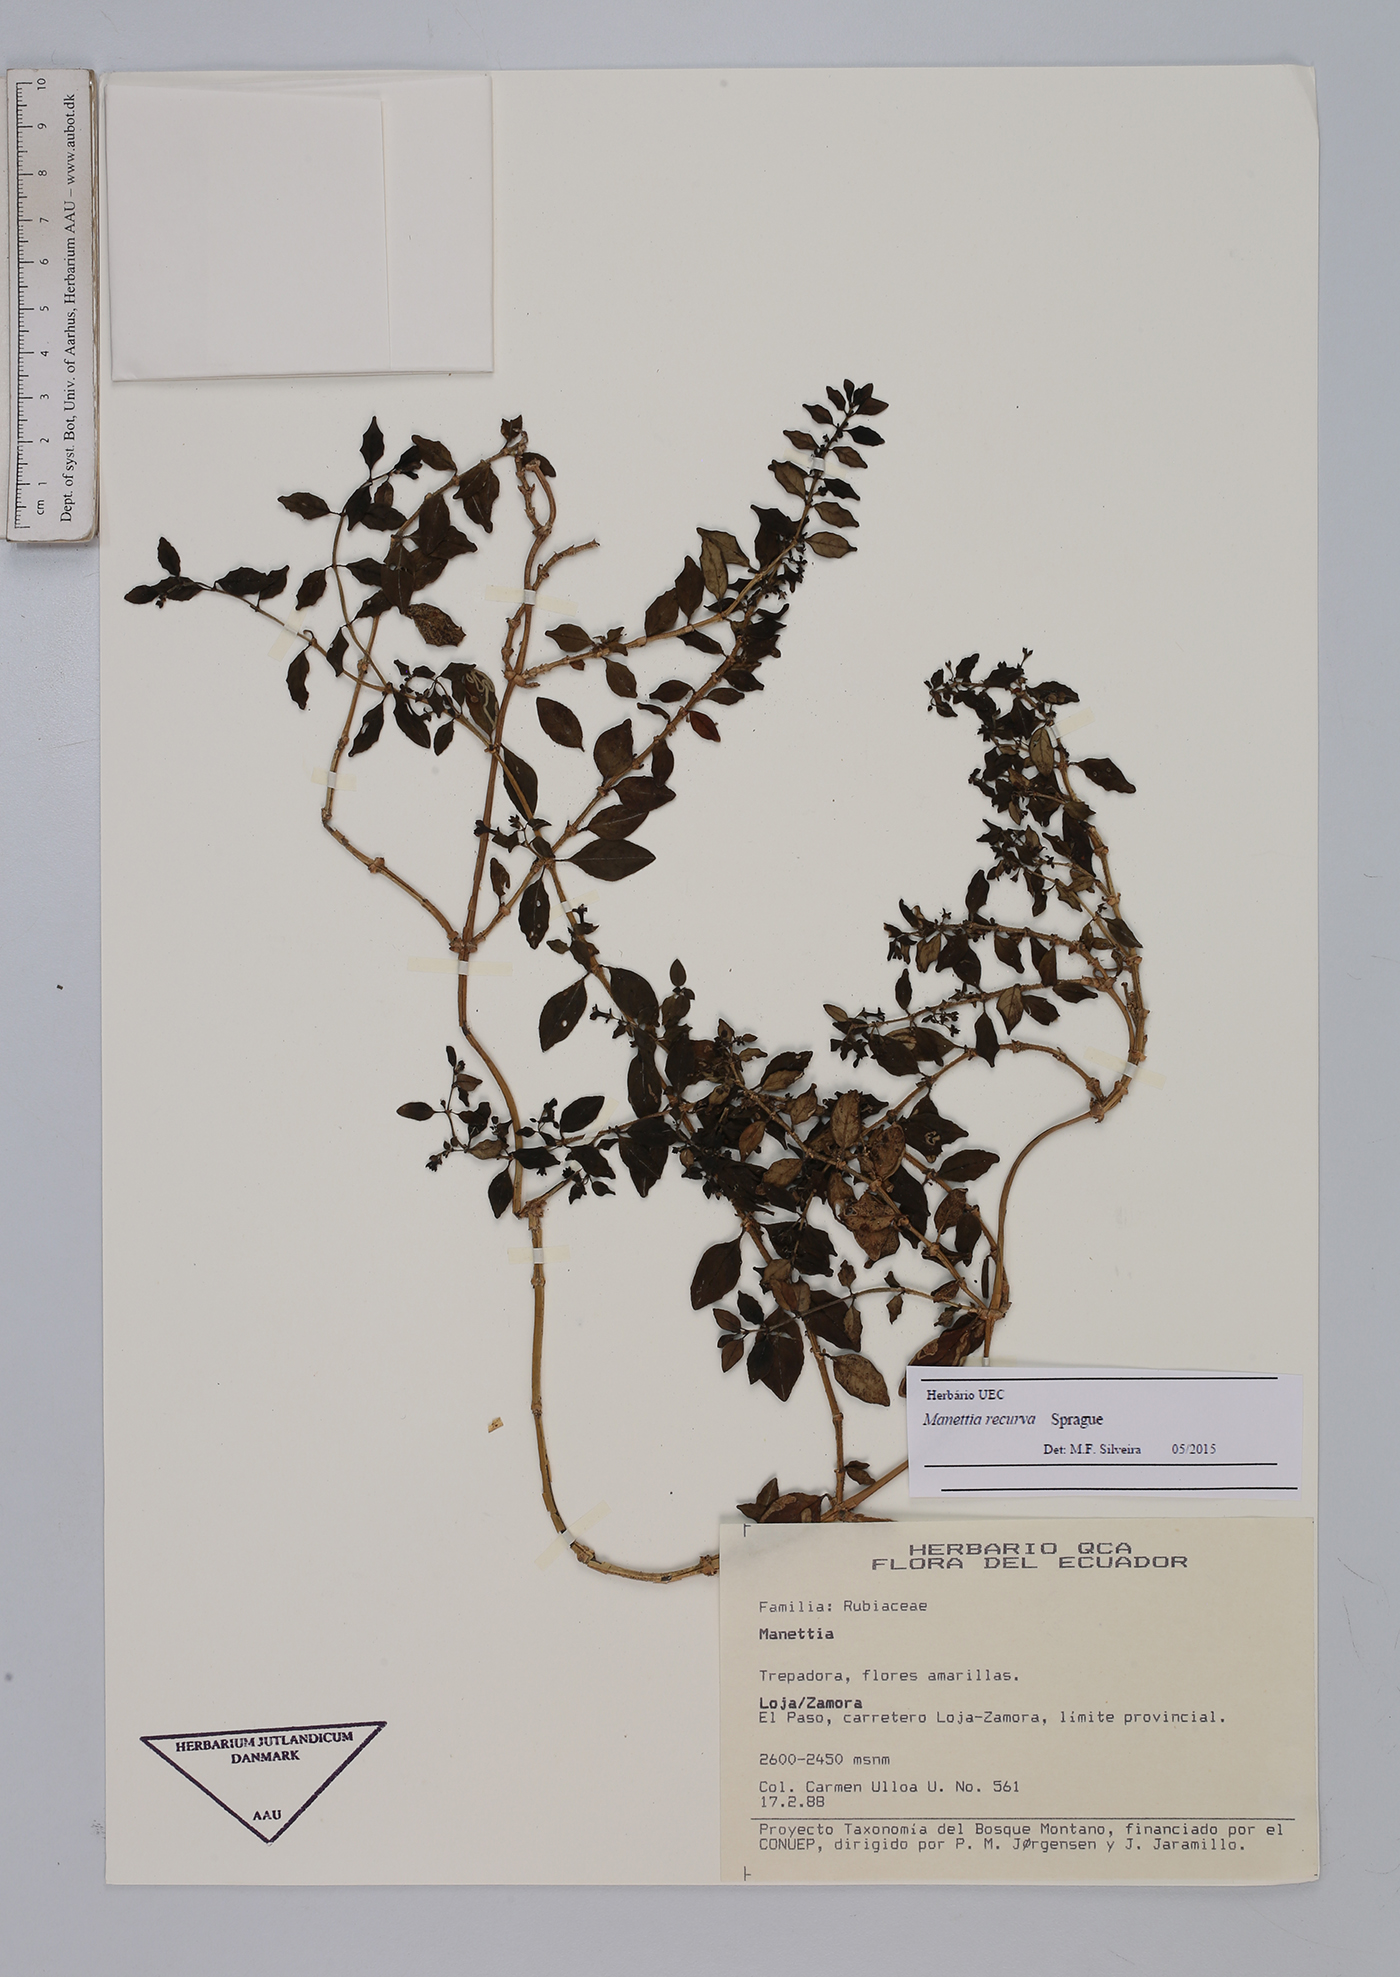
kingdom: Plantae
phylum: Tracheophyta
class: Magnoliopsida
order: Gentianales
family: Rubiaceae
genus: Manettia
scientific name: Manettia recurva
